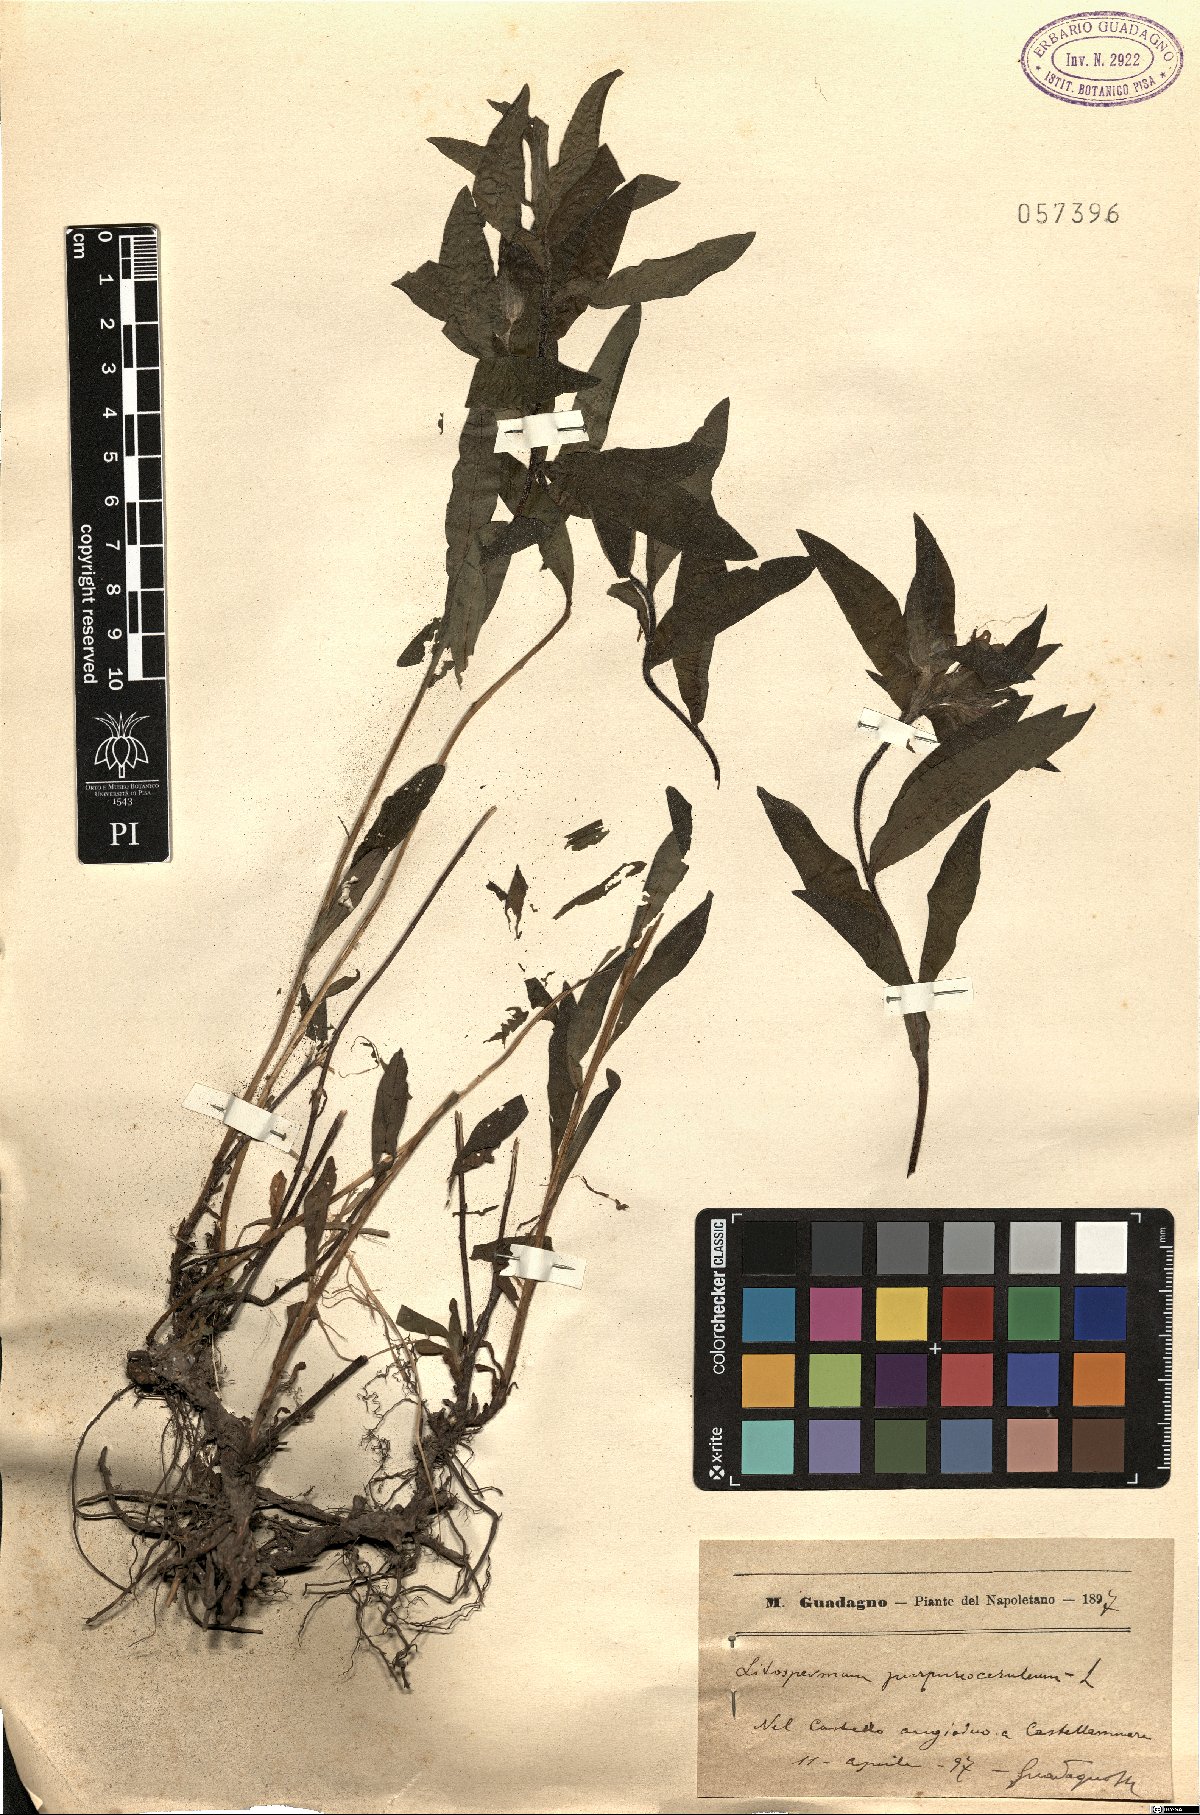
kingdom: Plantae
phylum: Tracheophyta
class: Magnoliopsida
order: Boraginales
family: Boraginaceae
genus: Aegonychon
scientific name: Aegonychon purpurocaeruleum
